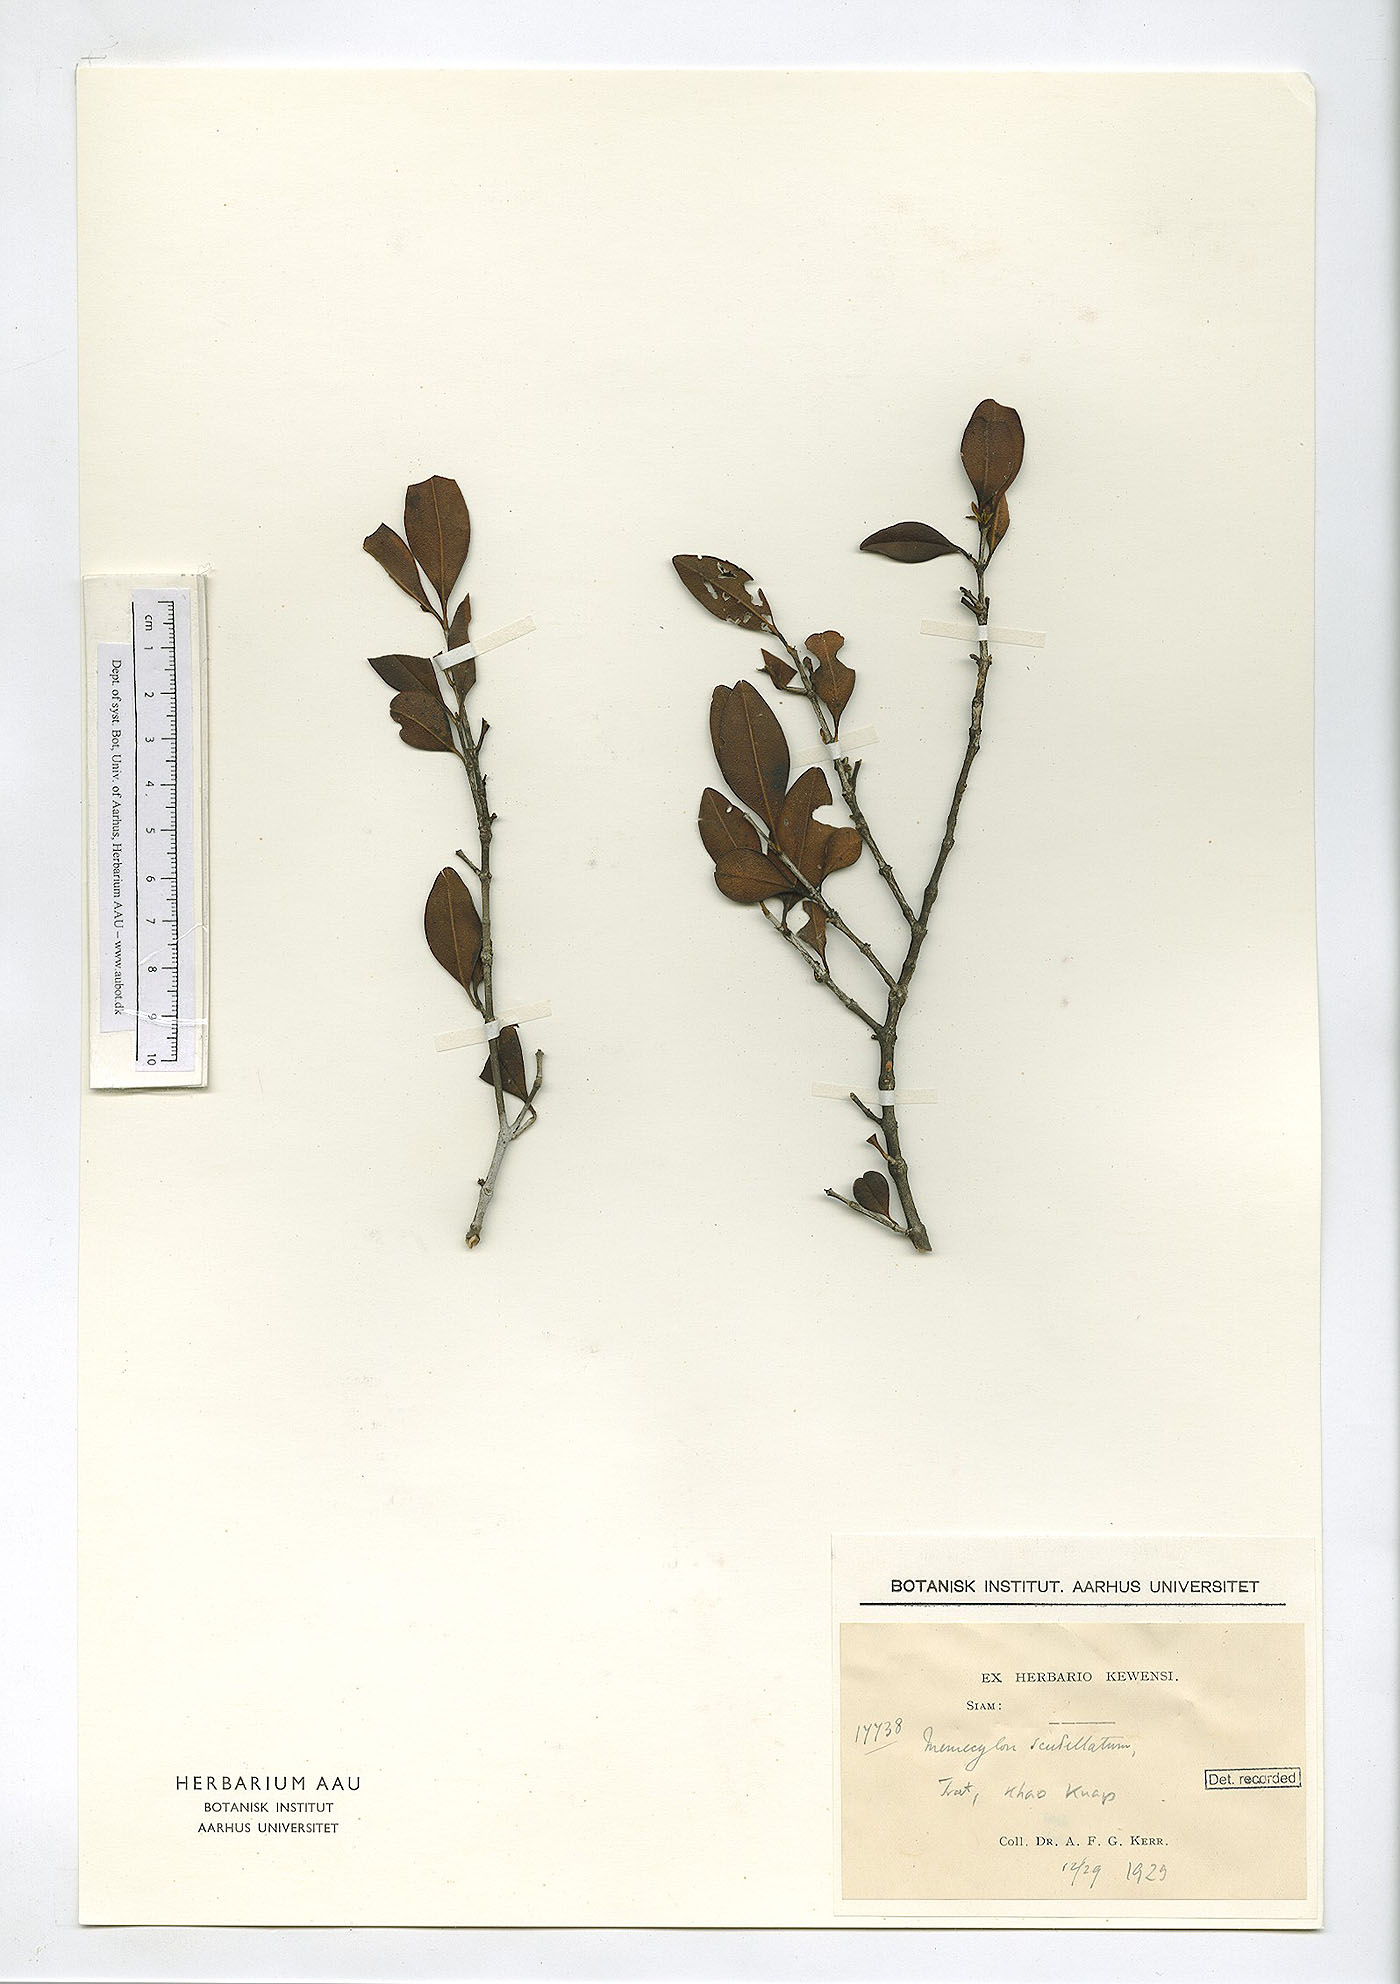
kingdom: Plantae
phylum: Tracheophyta
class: Magnoliopsida
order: Myrtales
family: Melastomataceae
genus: Memecylon
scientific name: Memecylon scutellatum
